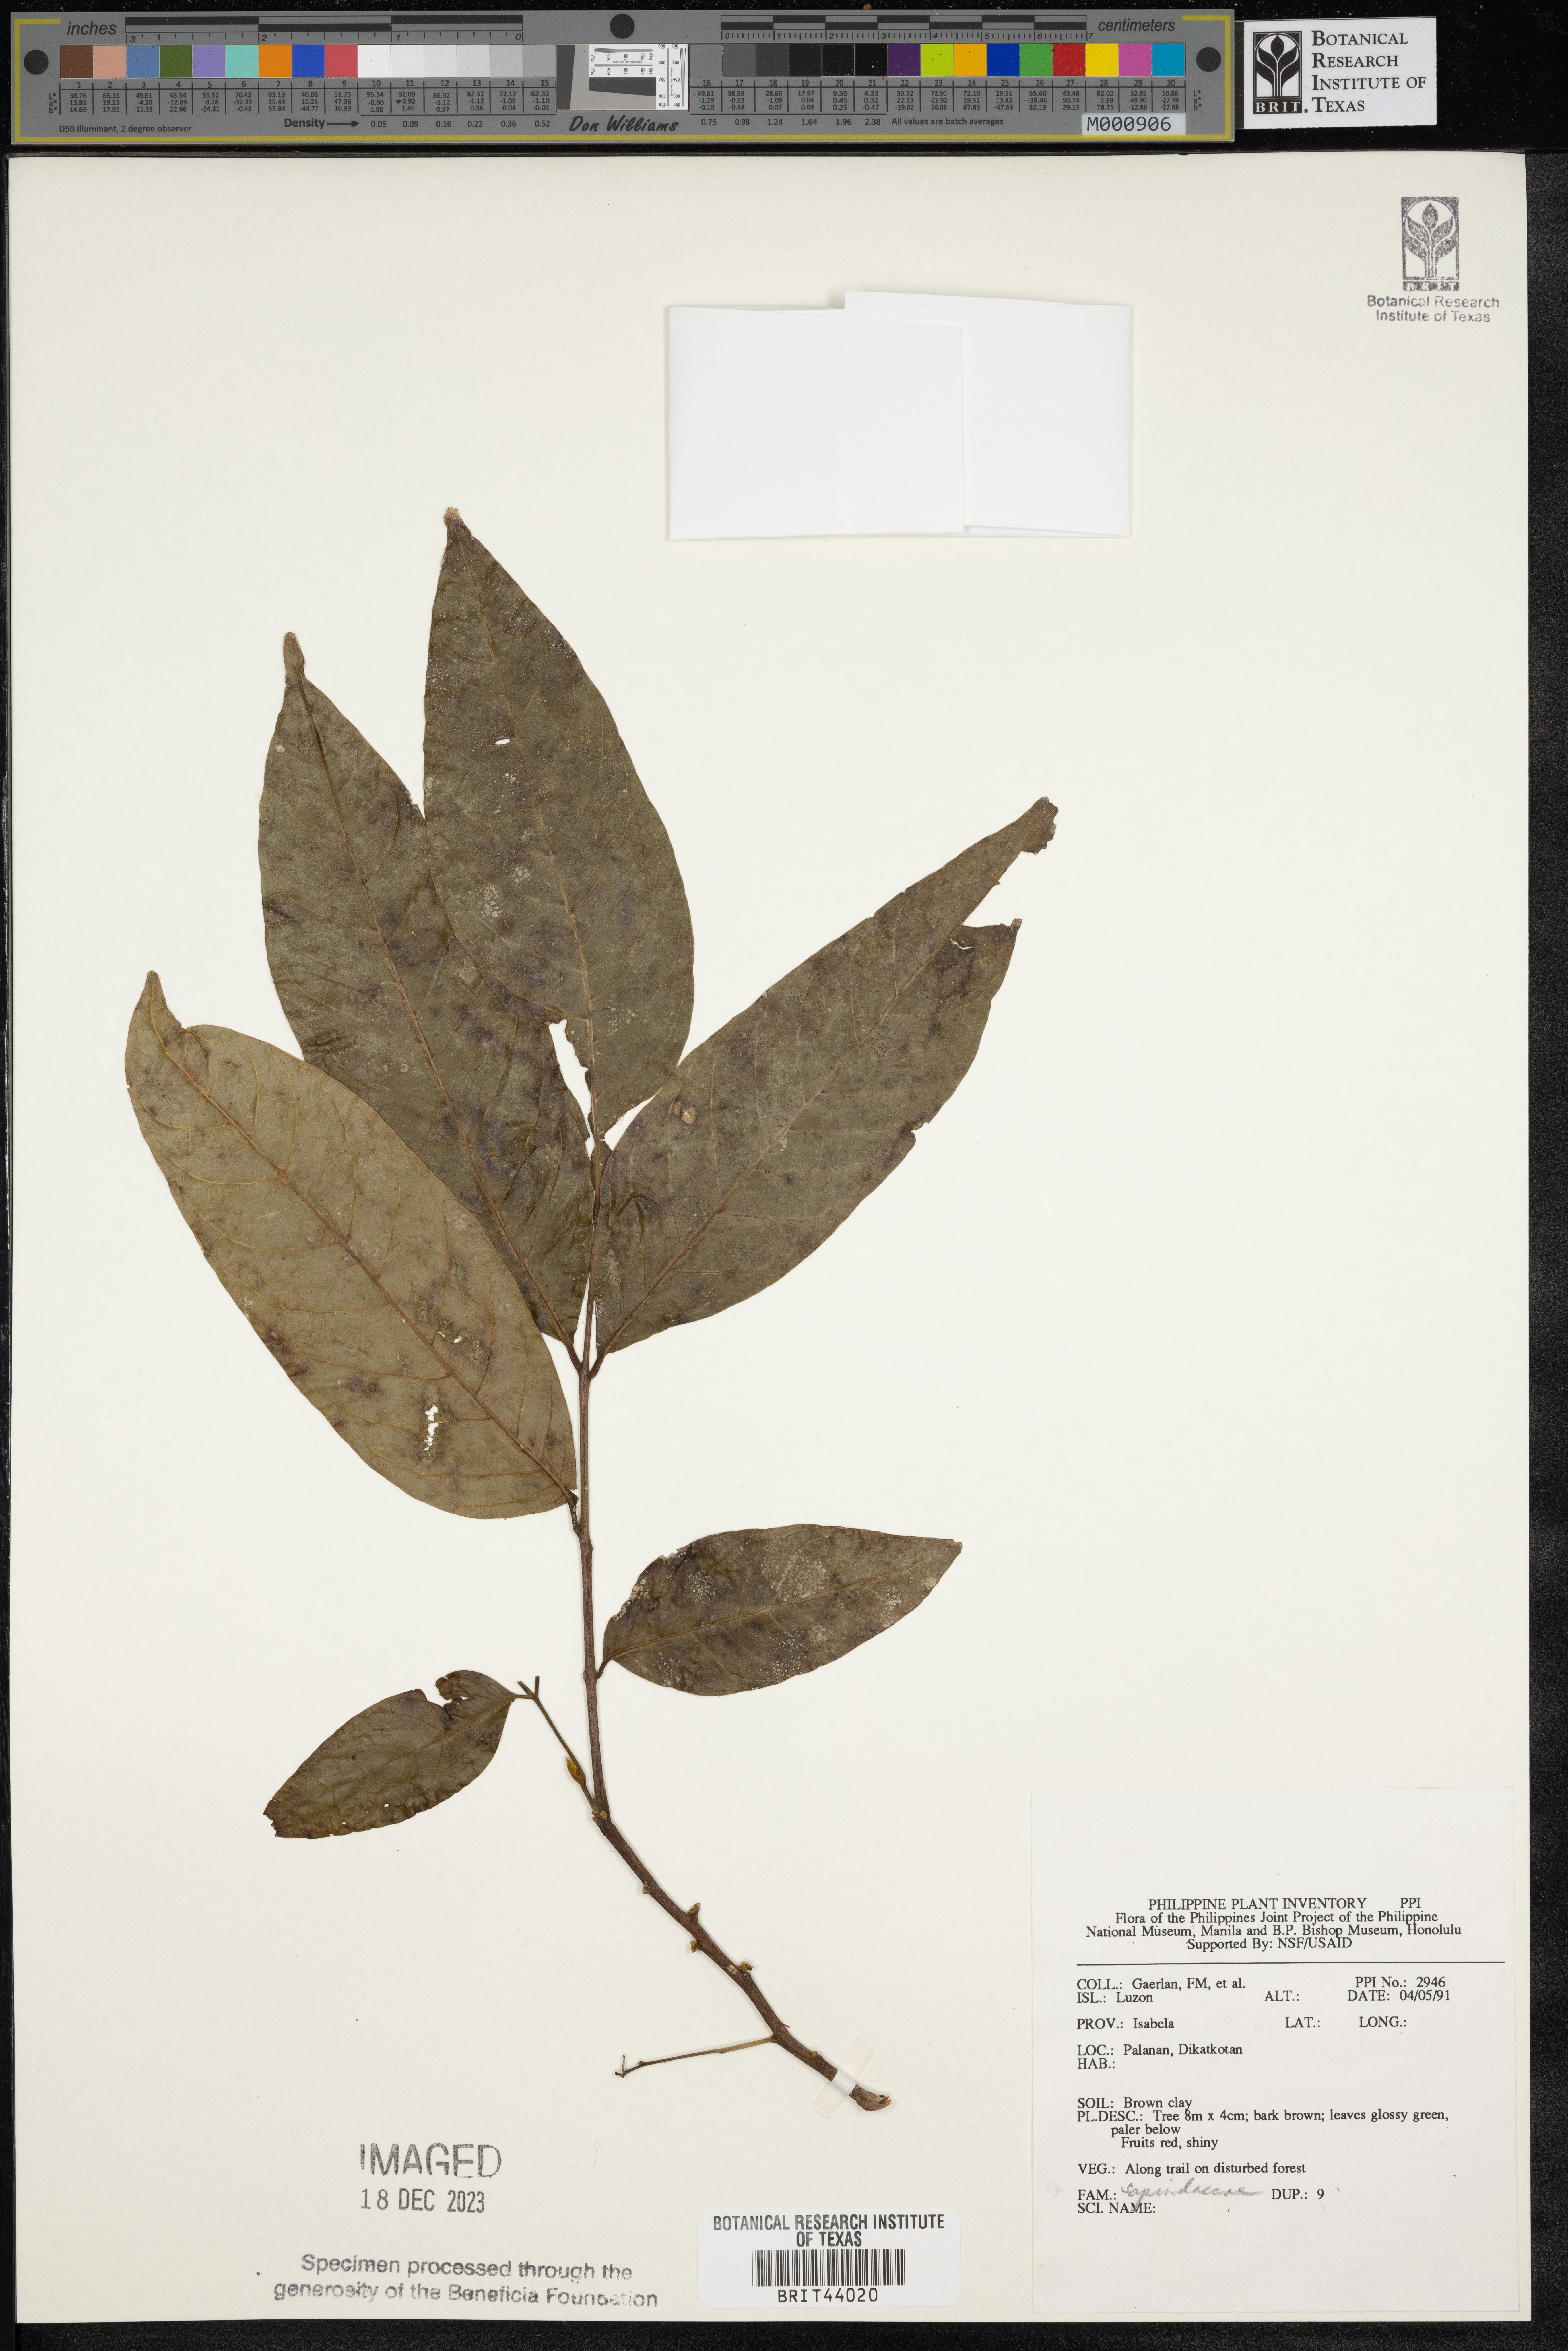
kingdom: Plantae
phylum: Tracheophyta
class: Magnoliopsida
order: Sapindales
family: Sapindaceae
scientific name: Sapindaceae
